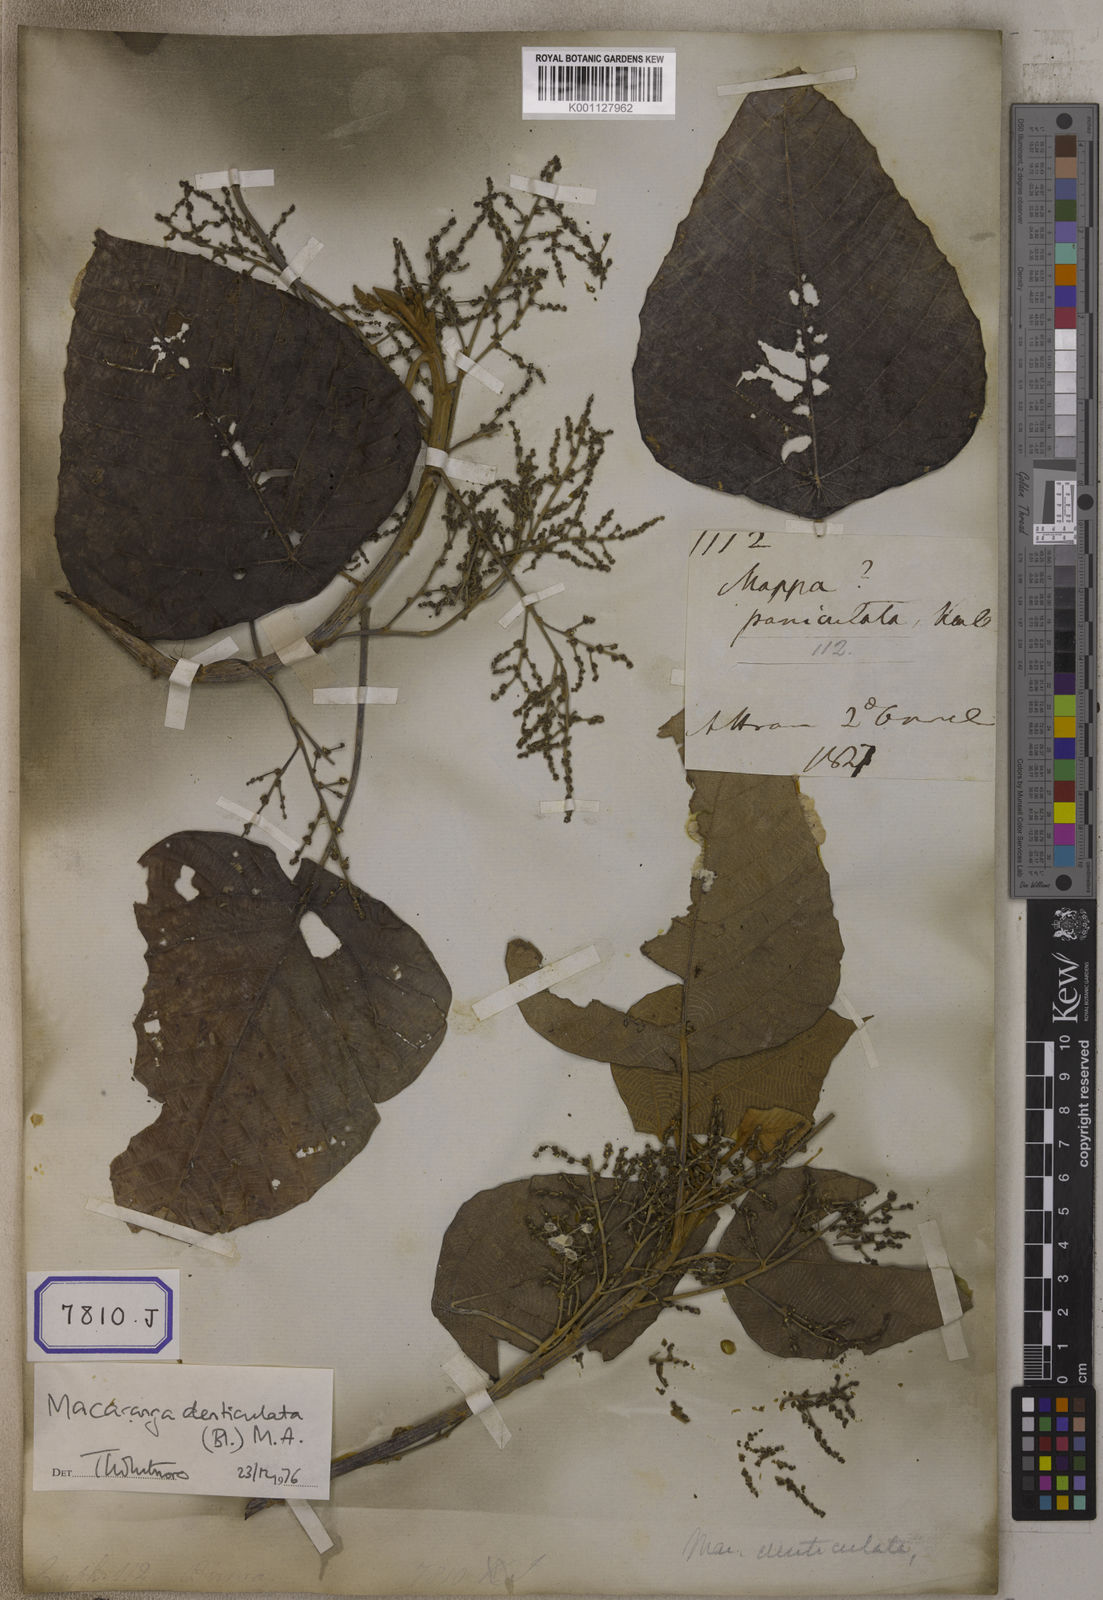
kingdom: Plantae
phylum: Tracheophyta
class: Magnoliopsida
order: Malpighiales
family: Euphorbiaceae
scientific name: Euphorbiaceae
